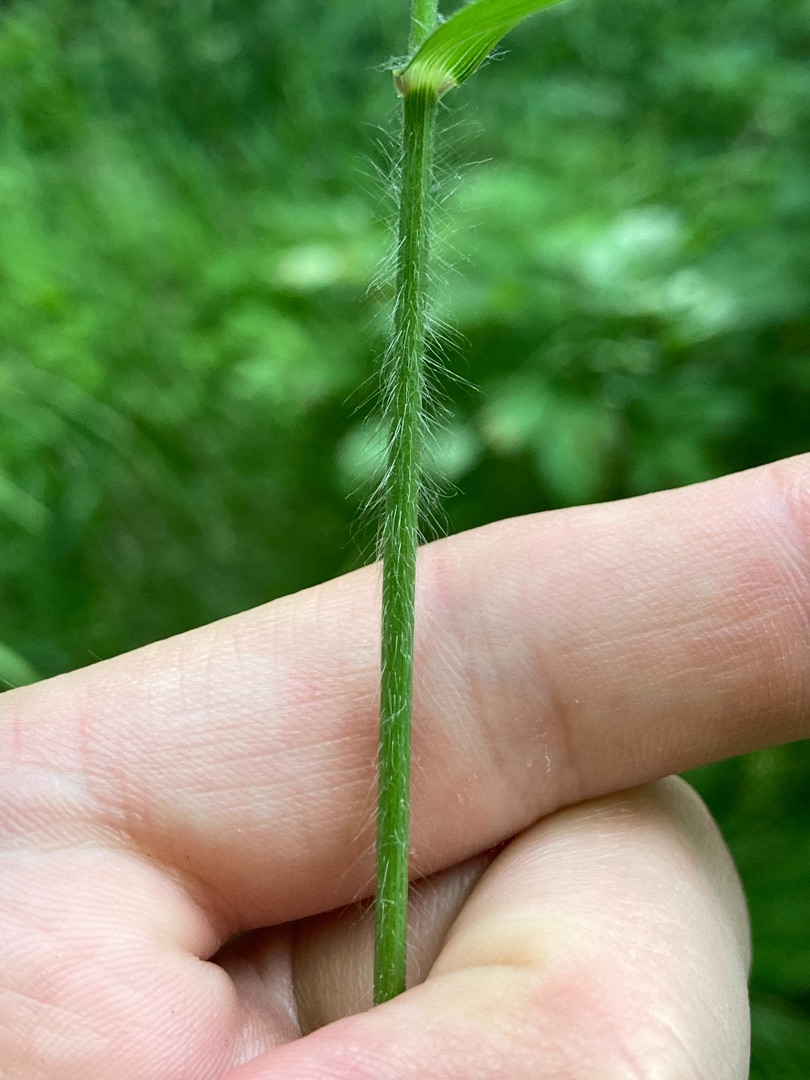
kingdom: Plantae
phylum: Tracheophyta
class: Liliopsida
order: Poales
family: Poaceae
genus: Bromus
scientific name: Bromus ramosus
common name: Sildig skov-hejre
